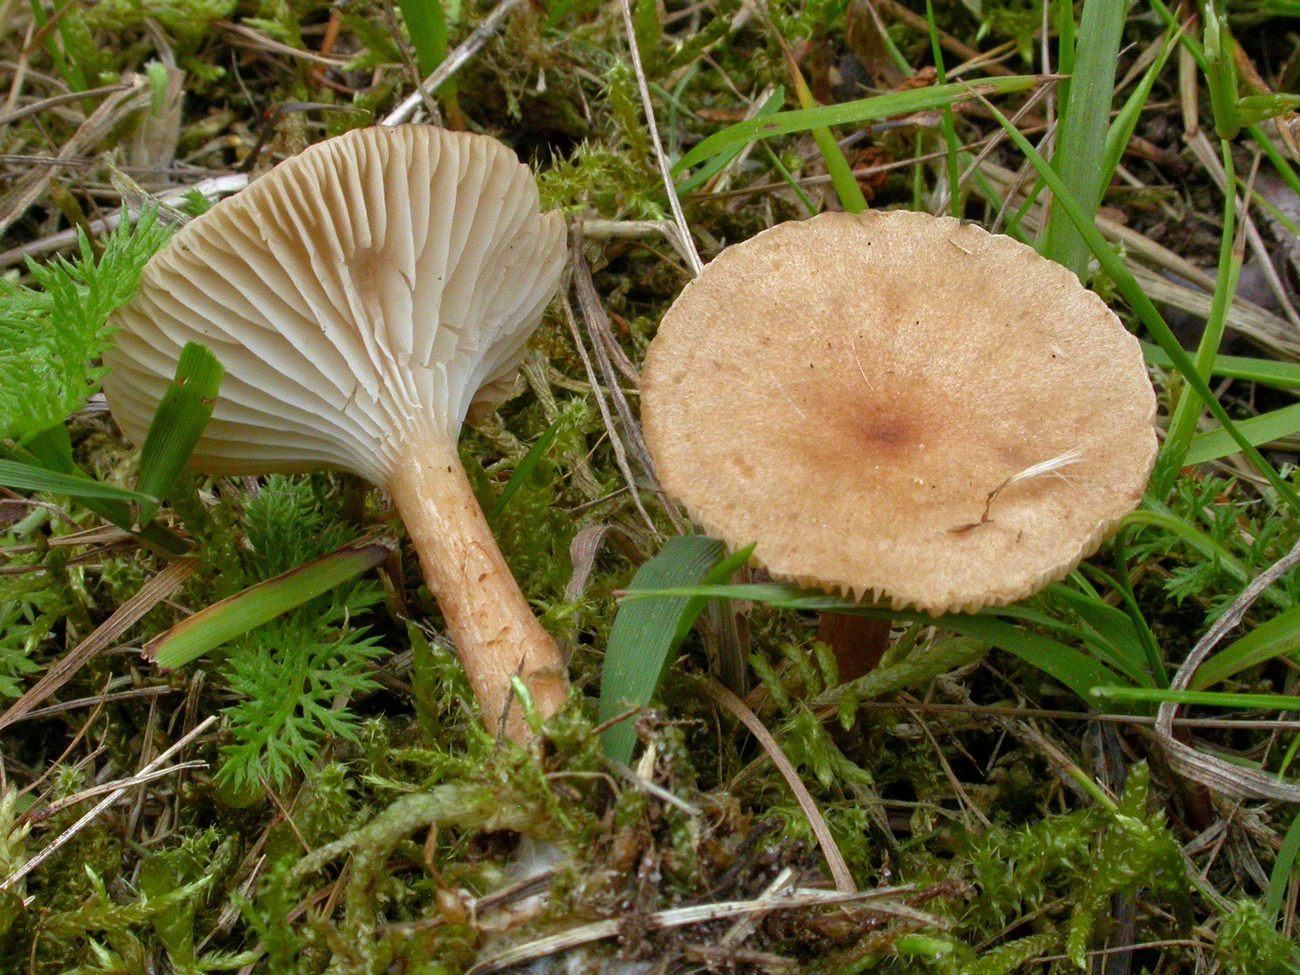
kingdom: Fungi
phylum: Basidiomycota
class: Agaricomycetes
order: Agaricales
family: Tricholomataceae
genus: Clitocybe
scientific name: Clitocybe costata
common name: brunstokket tragthat
